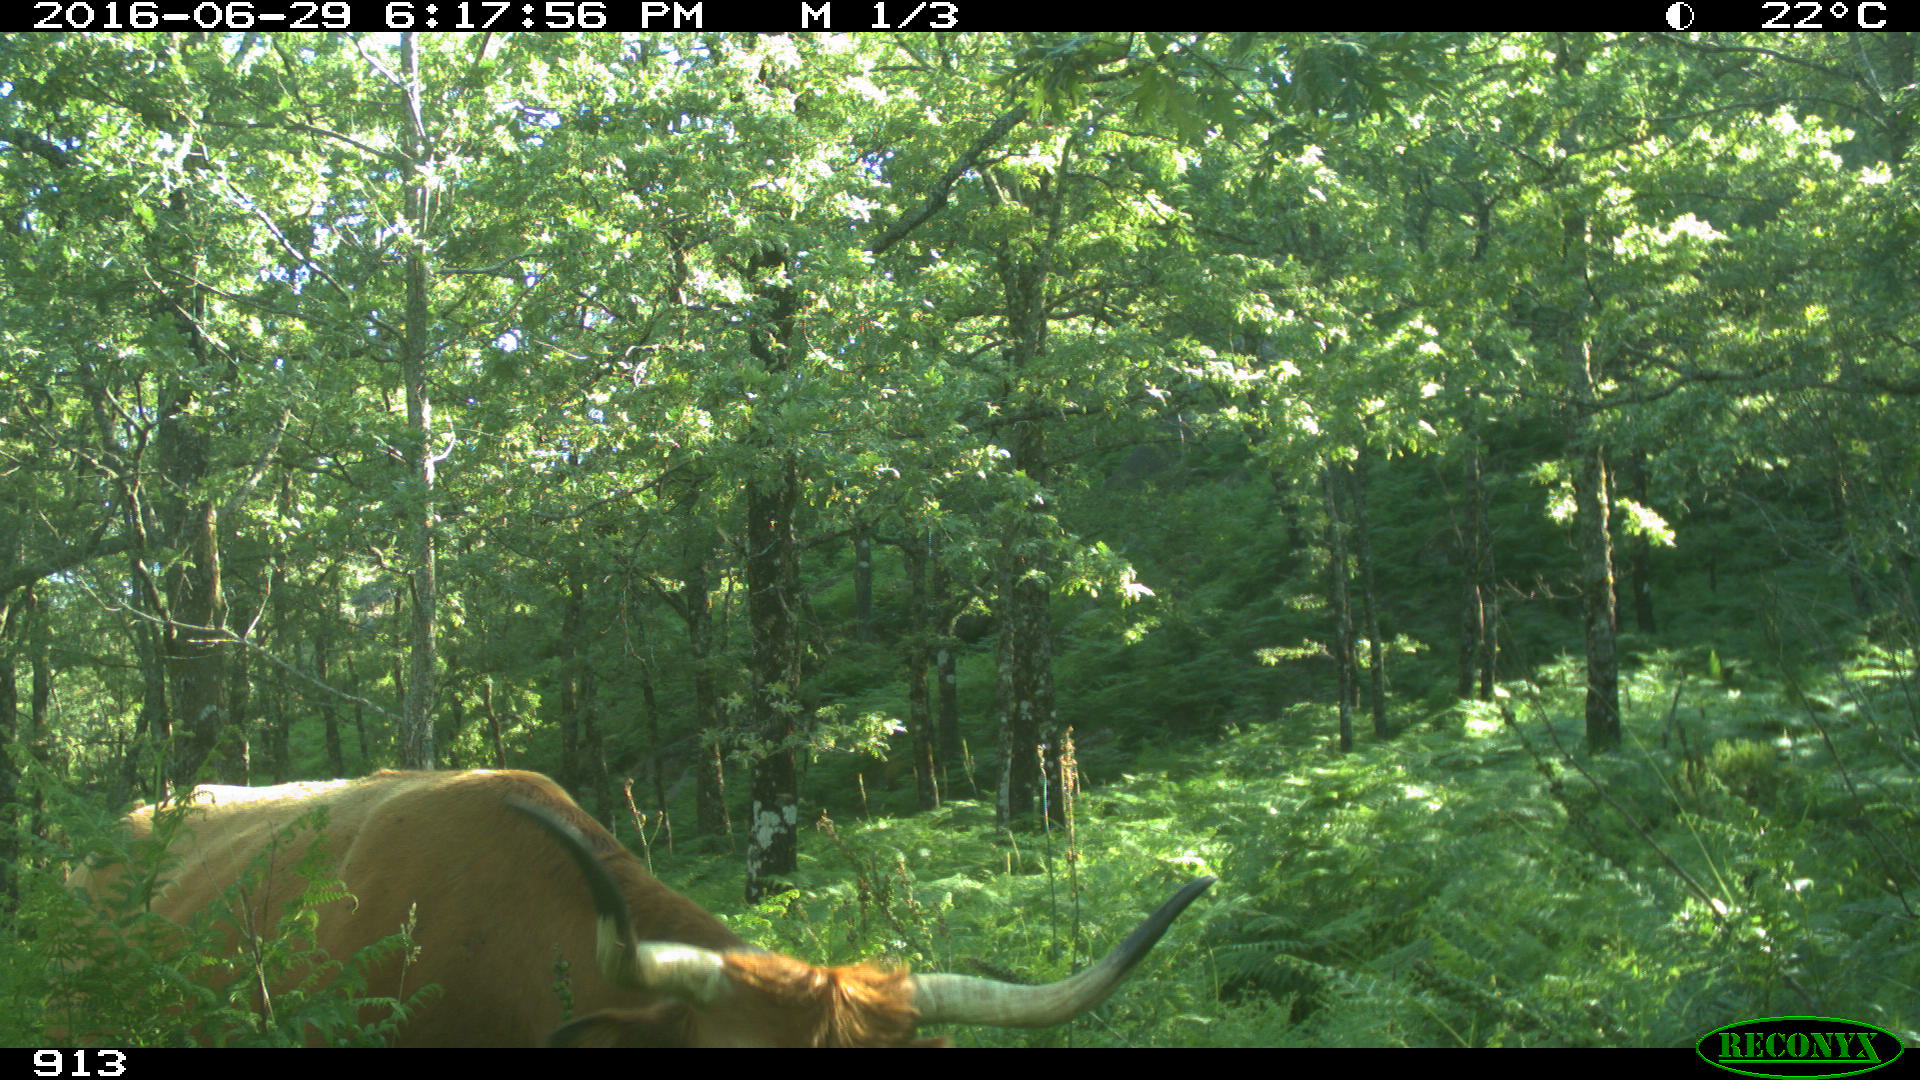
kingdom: Animalia
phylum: Chordata
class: Mammalia
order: Artiodactyla
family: Bovidae
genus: Bos
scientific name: Bos taurus
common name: Domesticated cattle
